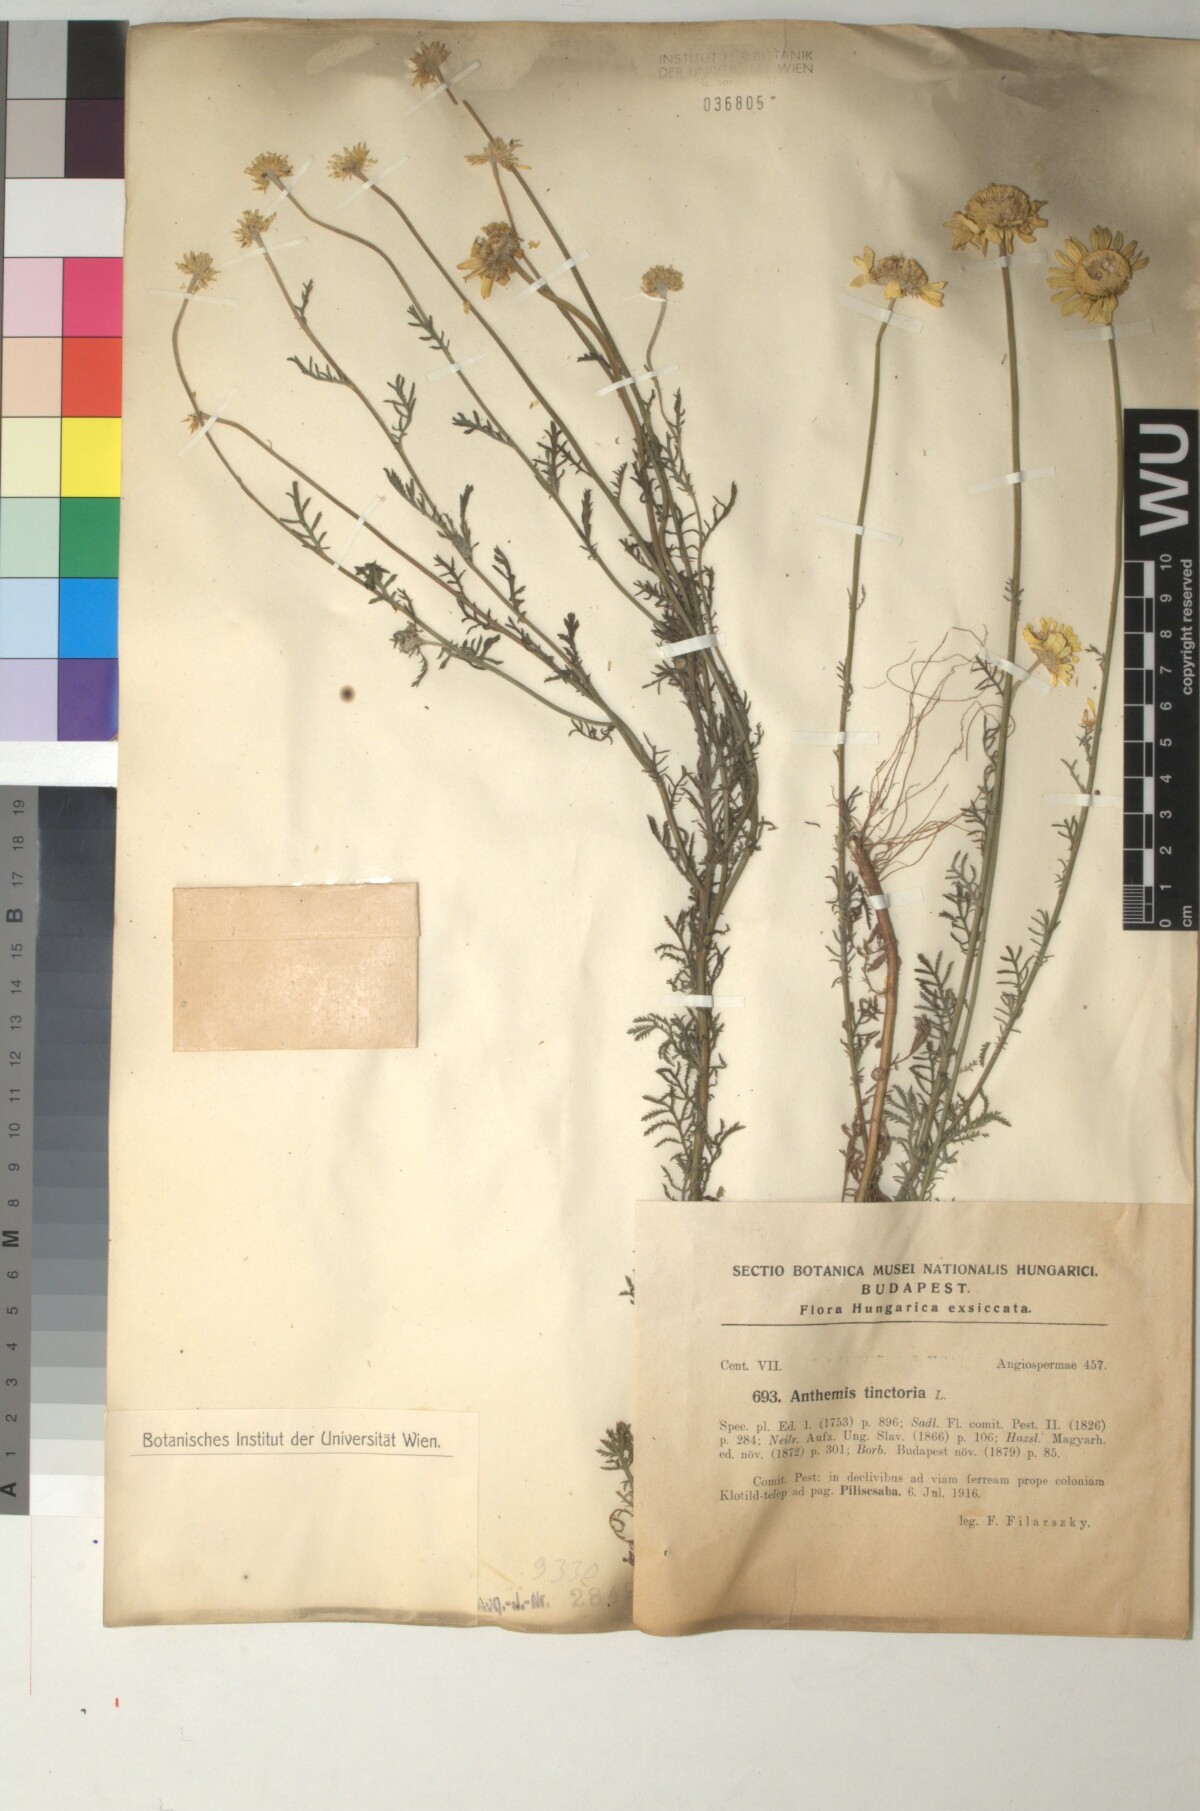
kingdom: Plantae
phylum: Tracheophyta
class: Magnoliopsida
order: Asterales
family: Asteraceae
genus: Cota
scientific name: Cota tinctoria
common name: Golden chamomile
